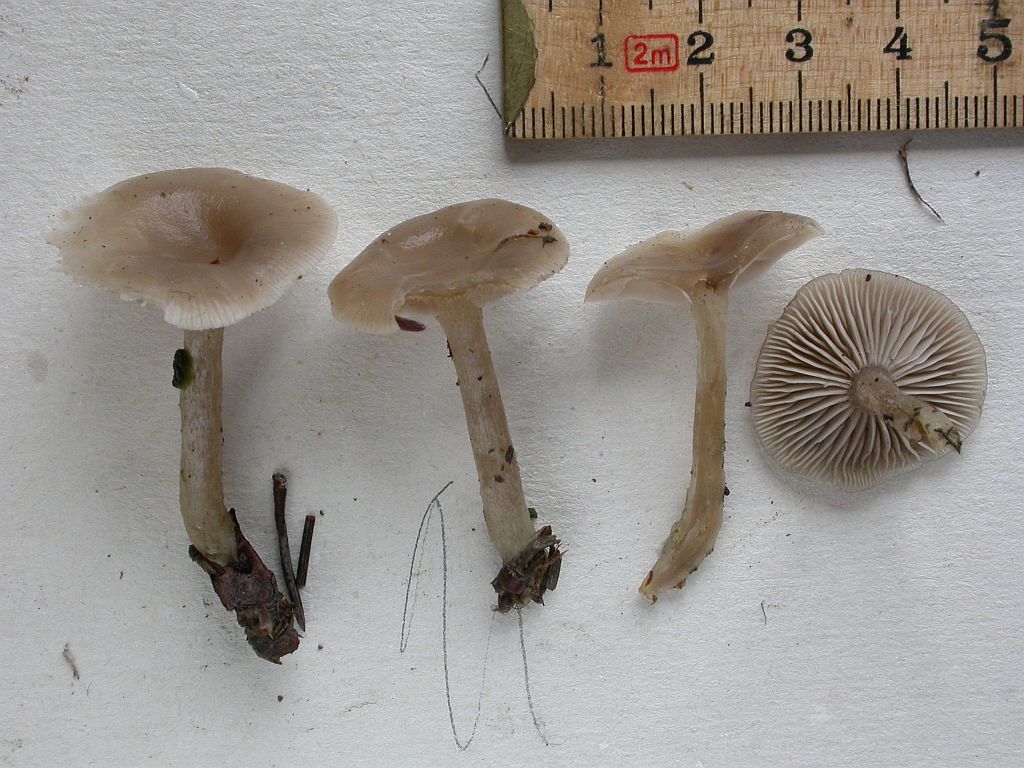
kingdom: Fungi
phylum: Basidiomycota
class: Agaricomycetes
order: Agaricales
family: Tricholomataceae
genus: Clitocybe
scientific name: Clitocybe vibecina
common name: randstribet tragthat
